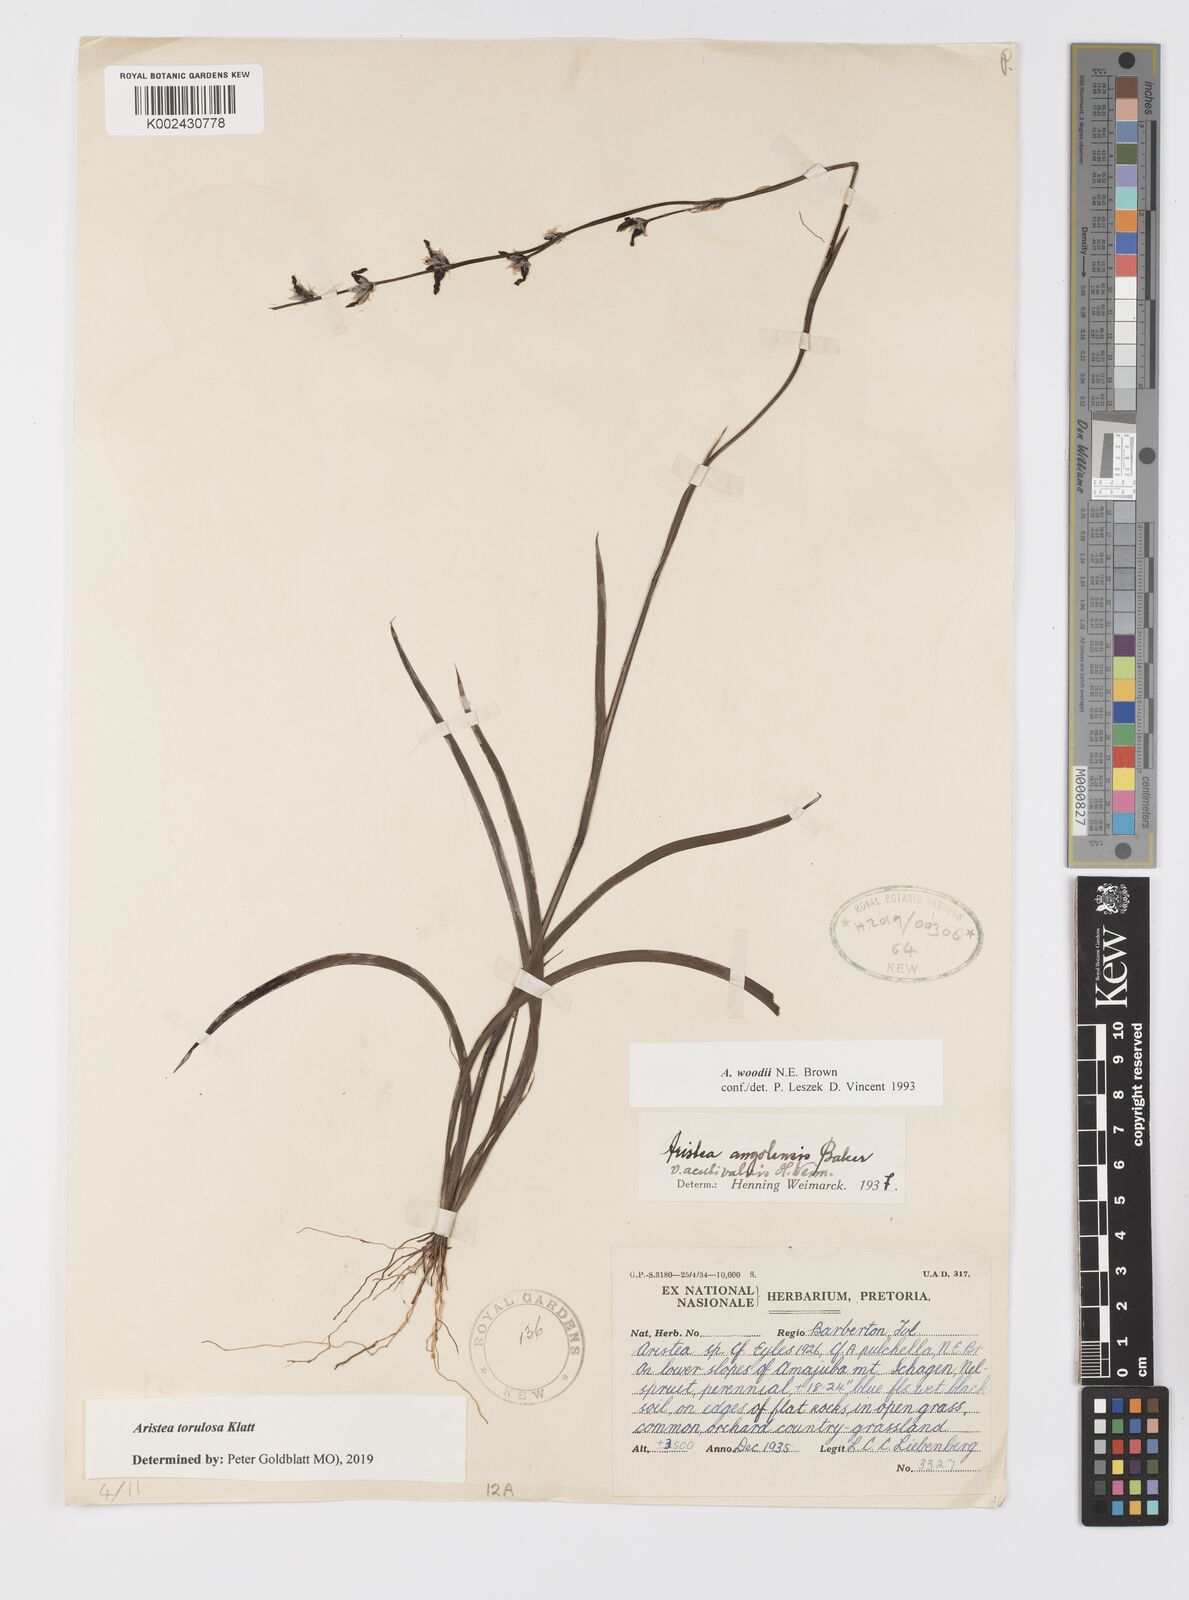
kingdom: Plantae
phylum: Tracheophyta
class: Liliopsida
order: Asparagales
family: Iridaceae
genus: Aristea
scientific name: Aristea torulosa
